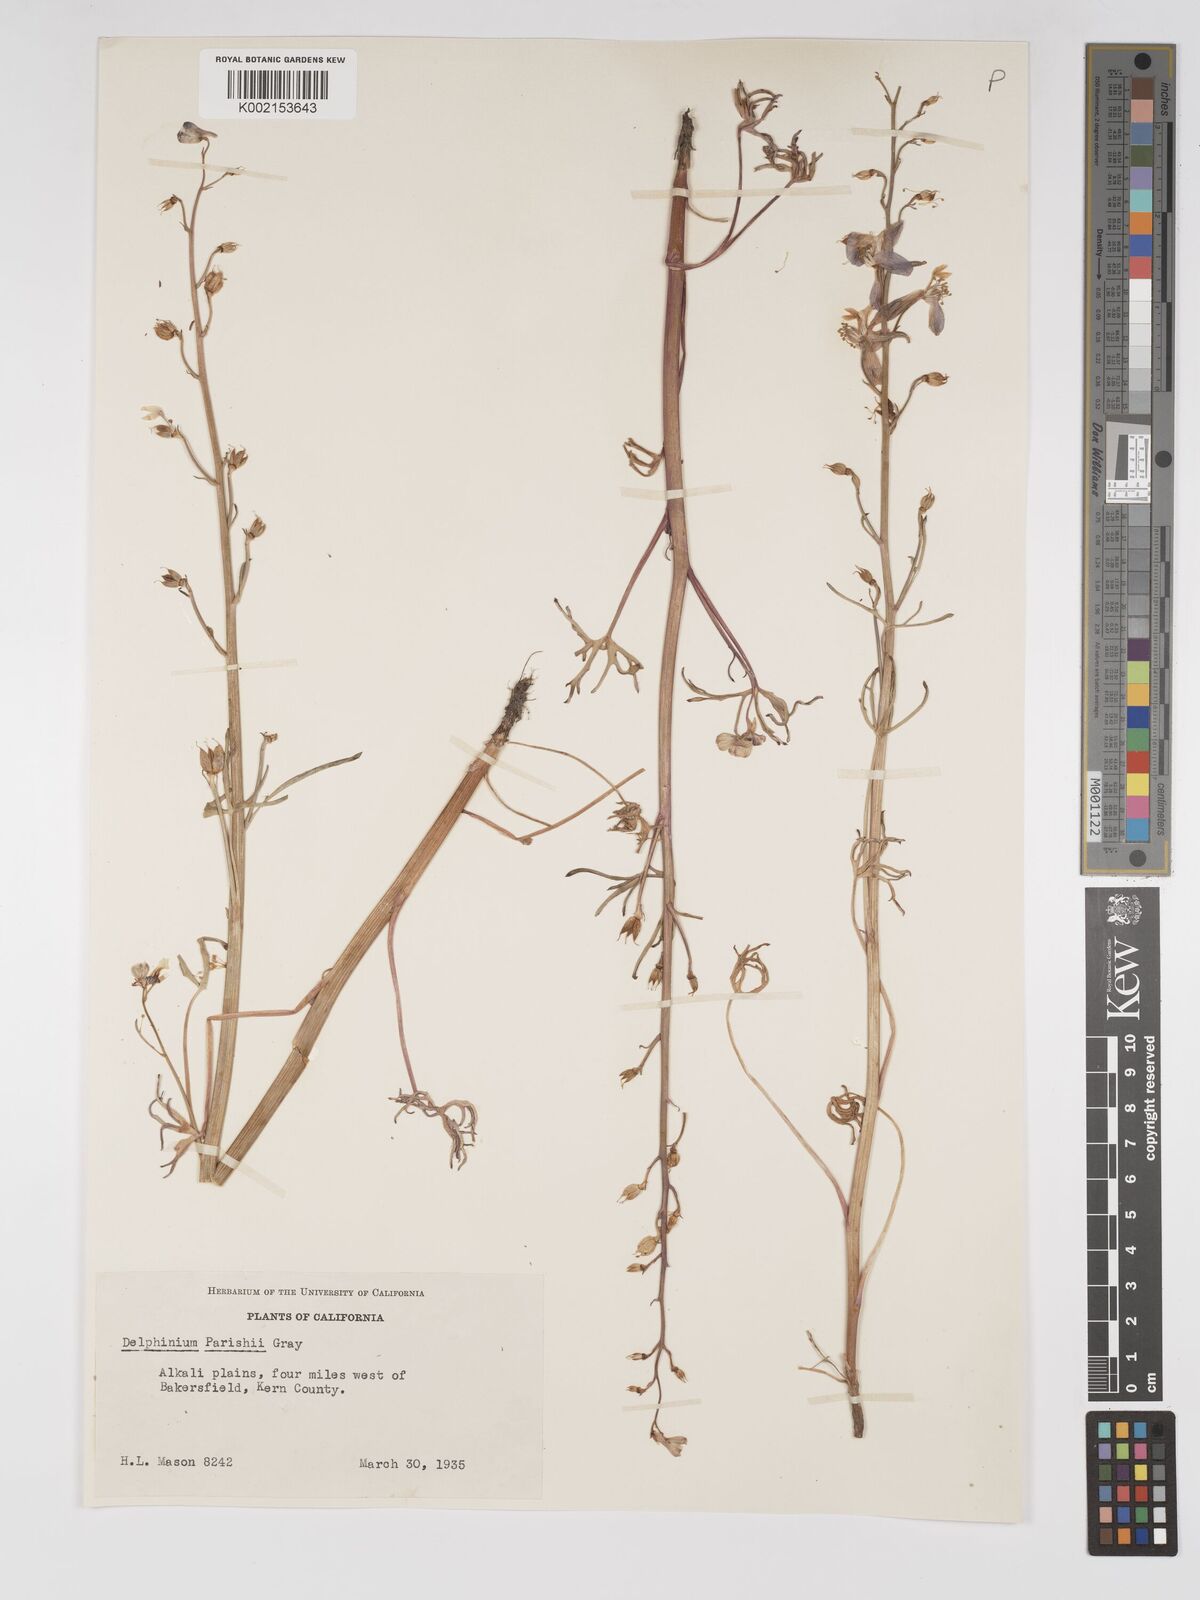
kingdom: Plantae
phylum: Tracheophyta
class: Magnoliopsida
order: Ranunculales
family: Ranunculaceae
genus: Delphinium
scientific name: Delphinium parishii
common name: Apache larkspur
